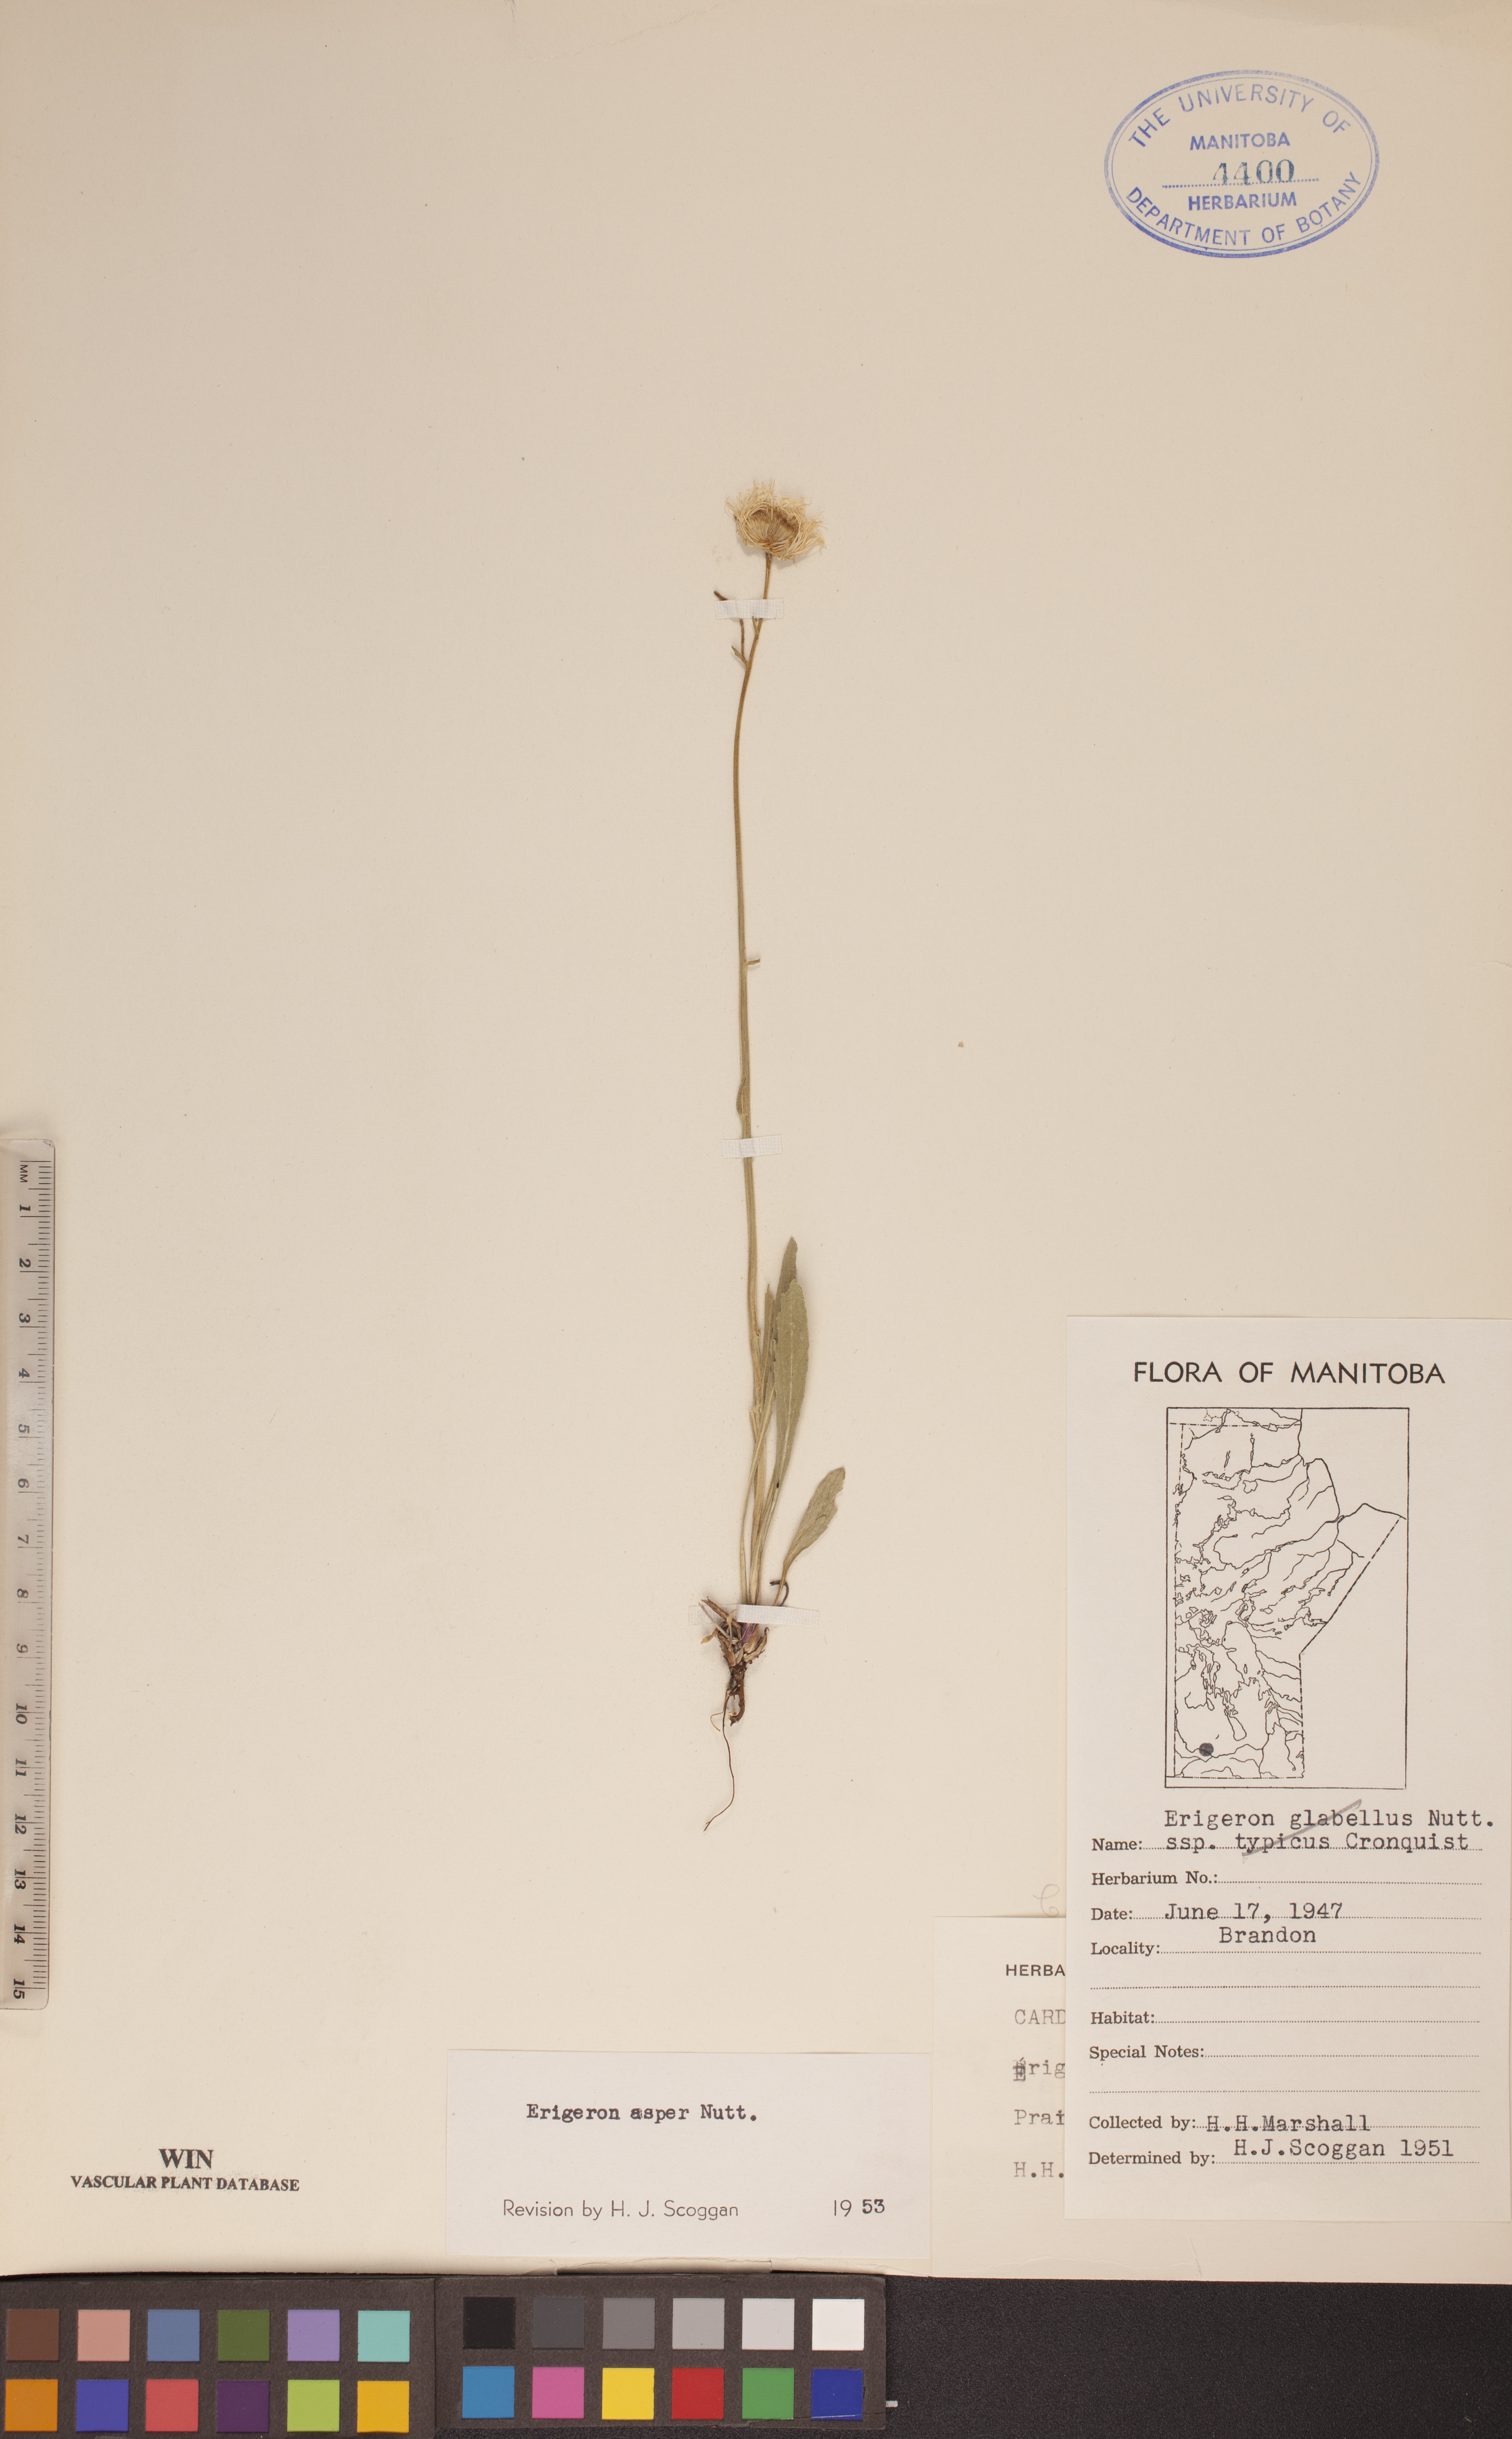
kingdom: Plantae
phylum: Tracheophyta
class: Magnoliopsida
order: Asterales
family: Asteraceae
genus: Erigeron
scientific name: Erigeron glabellus
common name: Smooth fleabane
